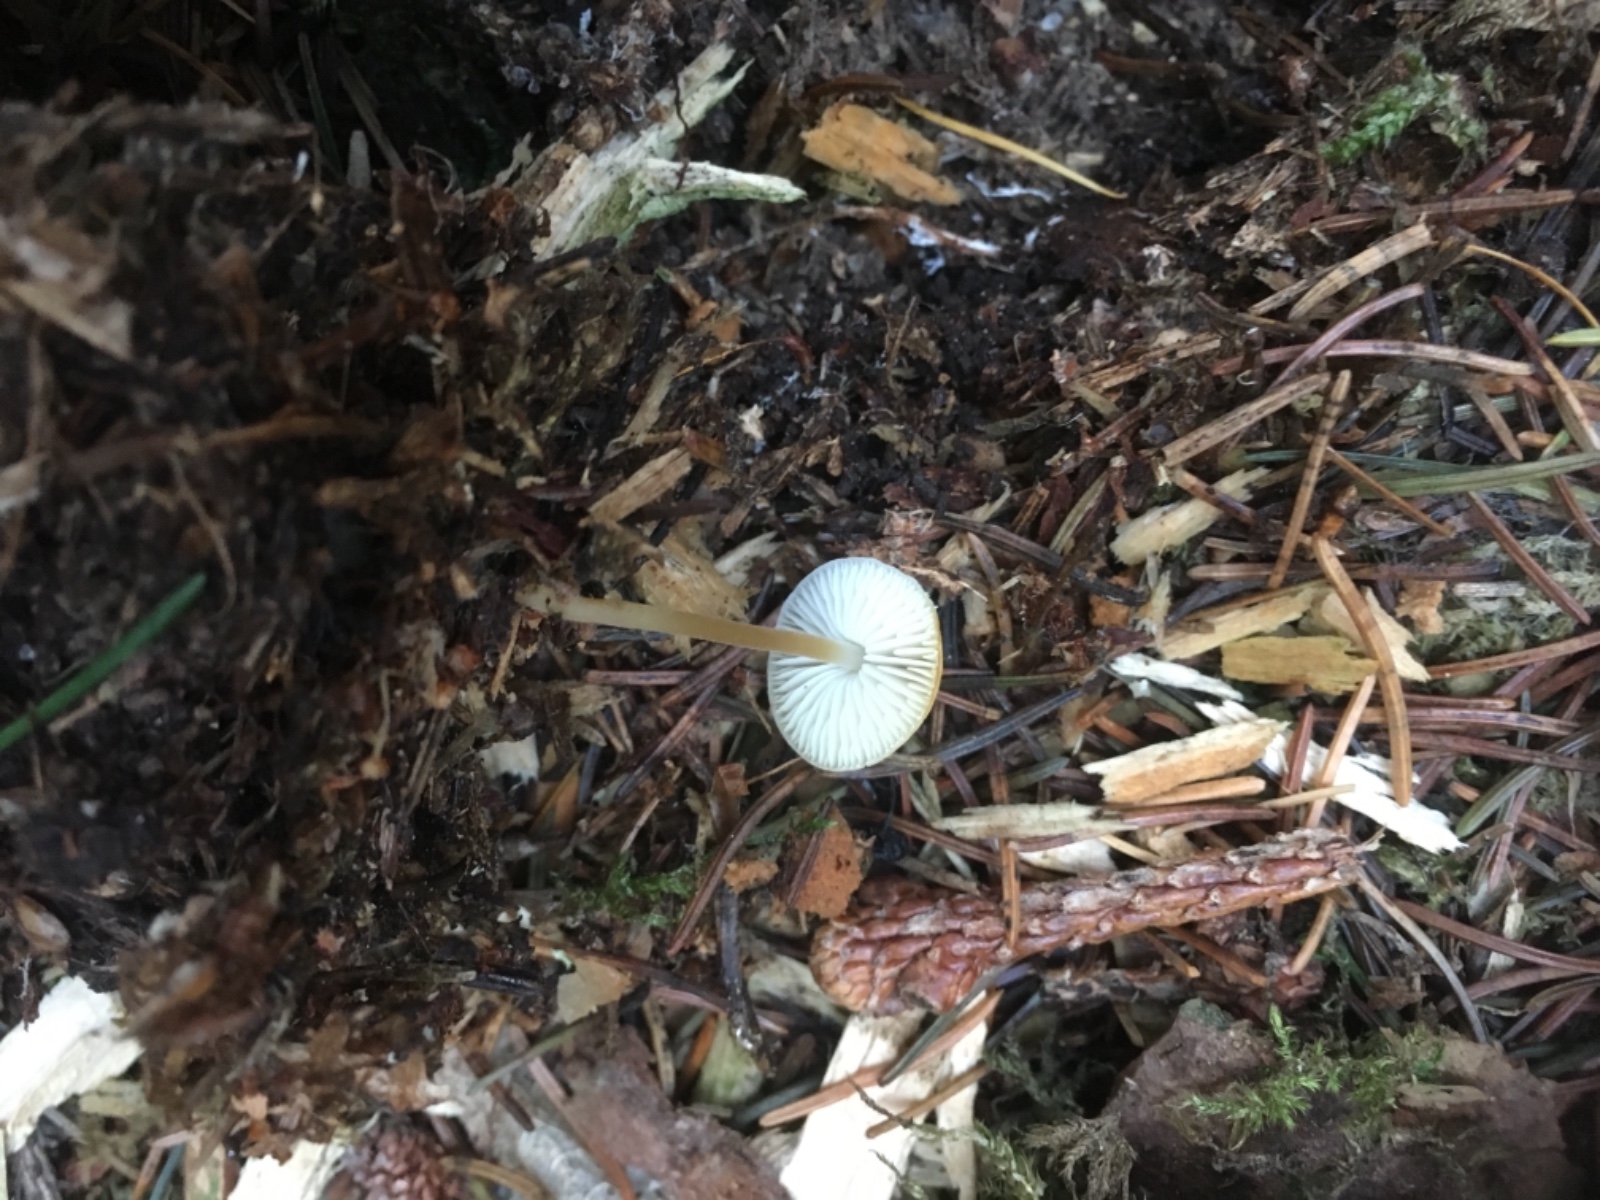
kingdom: Fungi
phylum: Basidiomycota
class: Agaricomycetes
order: Agaricales
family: Physalacriaceae
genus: Strobilurus
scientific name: Strobilurus esculentus
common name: gran-koglehat
